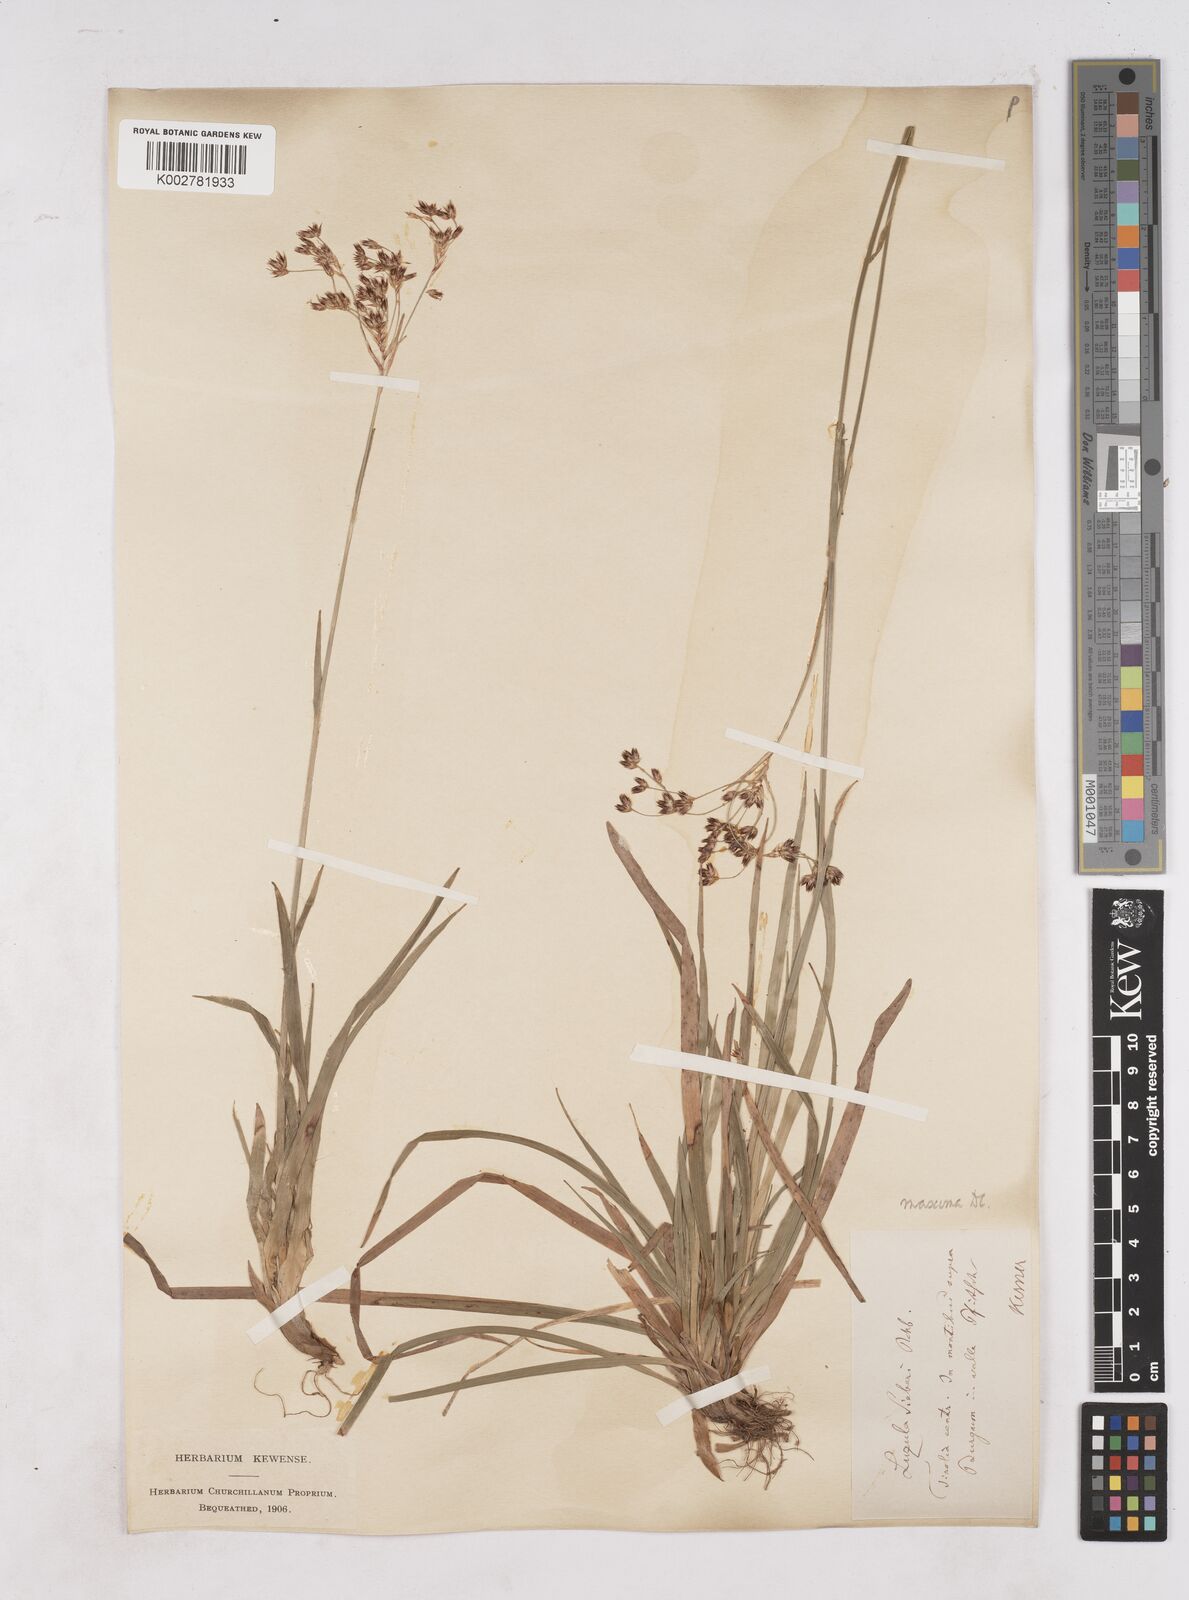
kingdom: Plantae
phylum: Tracheophyta
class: Liliopsida
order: Poales
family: Juncaceae
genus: Luzula
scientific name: Luzula sylvatica
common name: Great wood-rush
